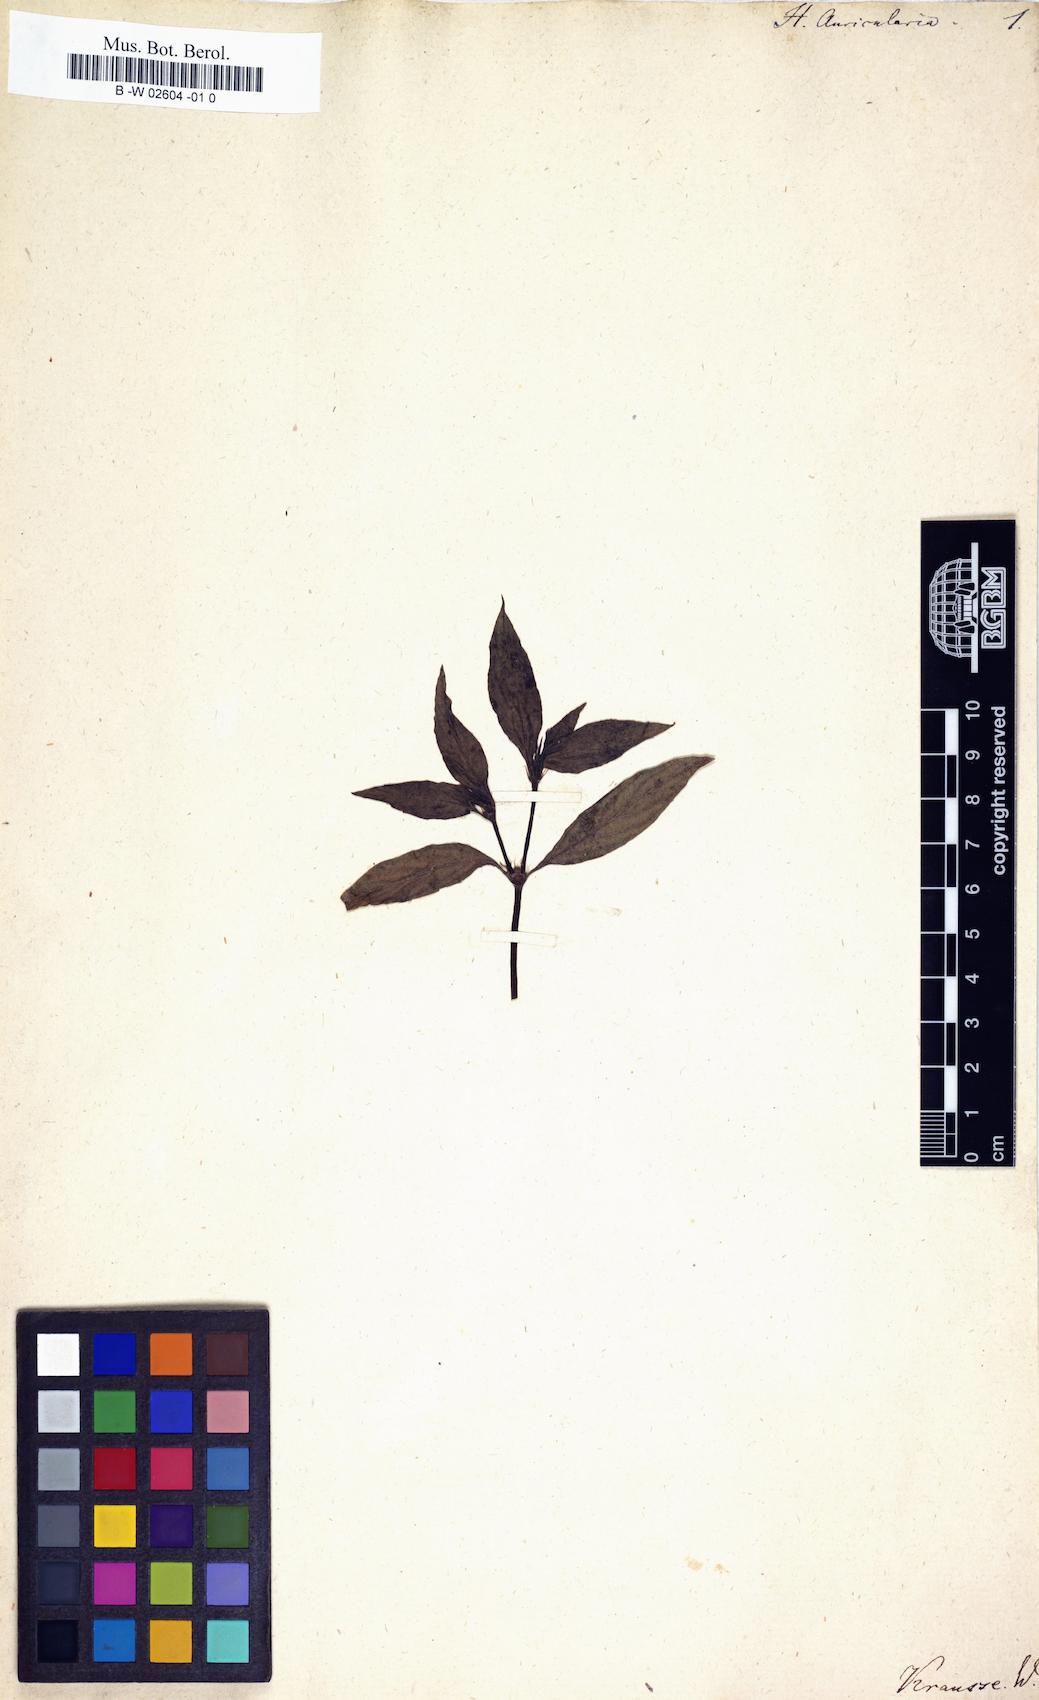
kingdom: Plantae
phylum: Tracheophyta
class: Magnoliopsida
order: Gentianales
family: Rubiaceae
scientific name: Rubiaceae
